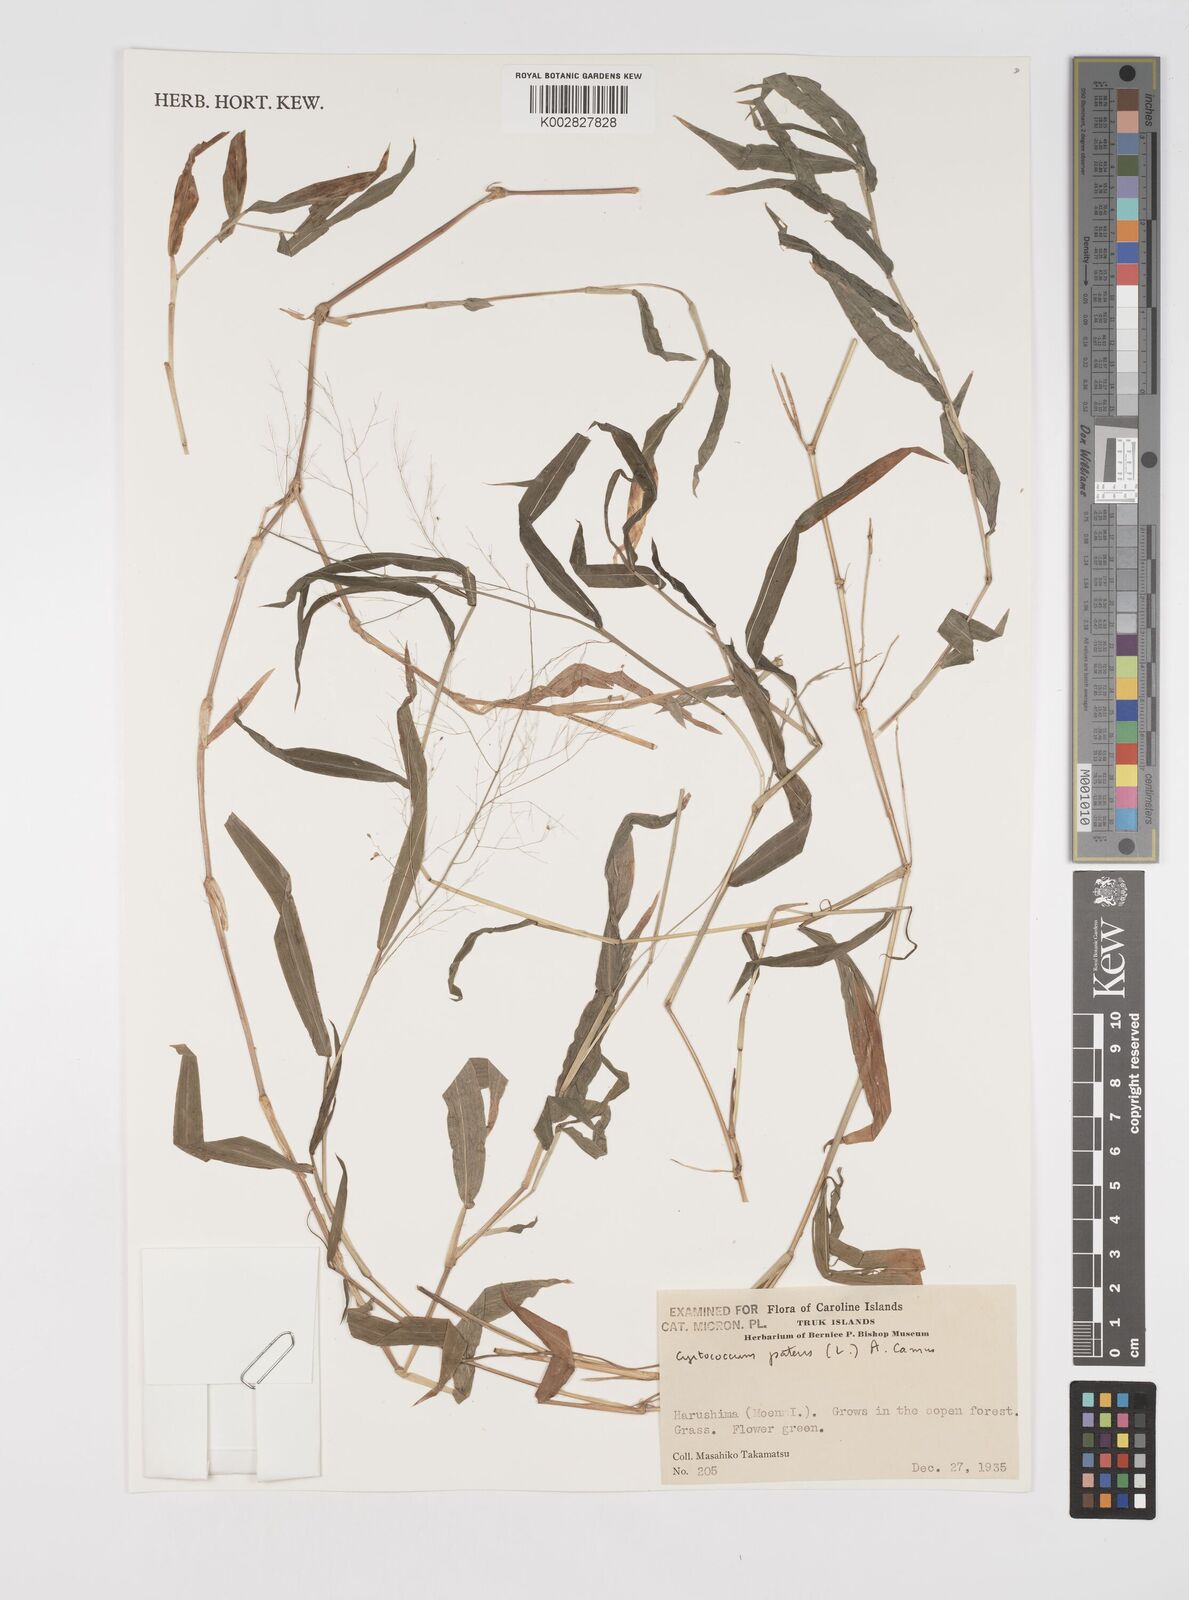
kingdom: Plantae
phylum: Tracheophyta
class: Liliopsida
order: Poales
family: Poaceae
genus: Cyrtococcum
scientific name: Cyrtococcum patens
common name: Broad-leaved bowgrass
